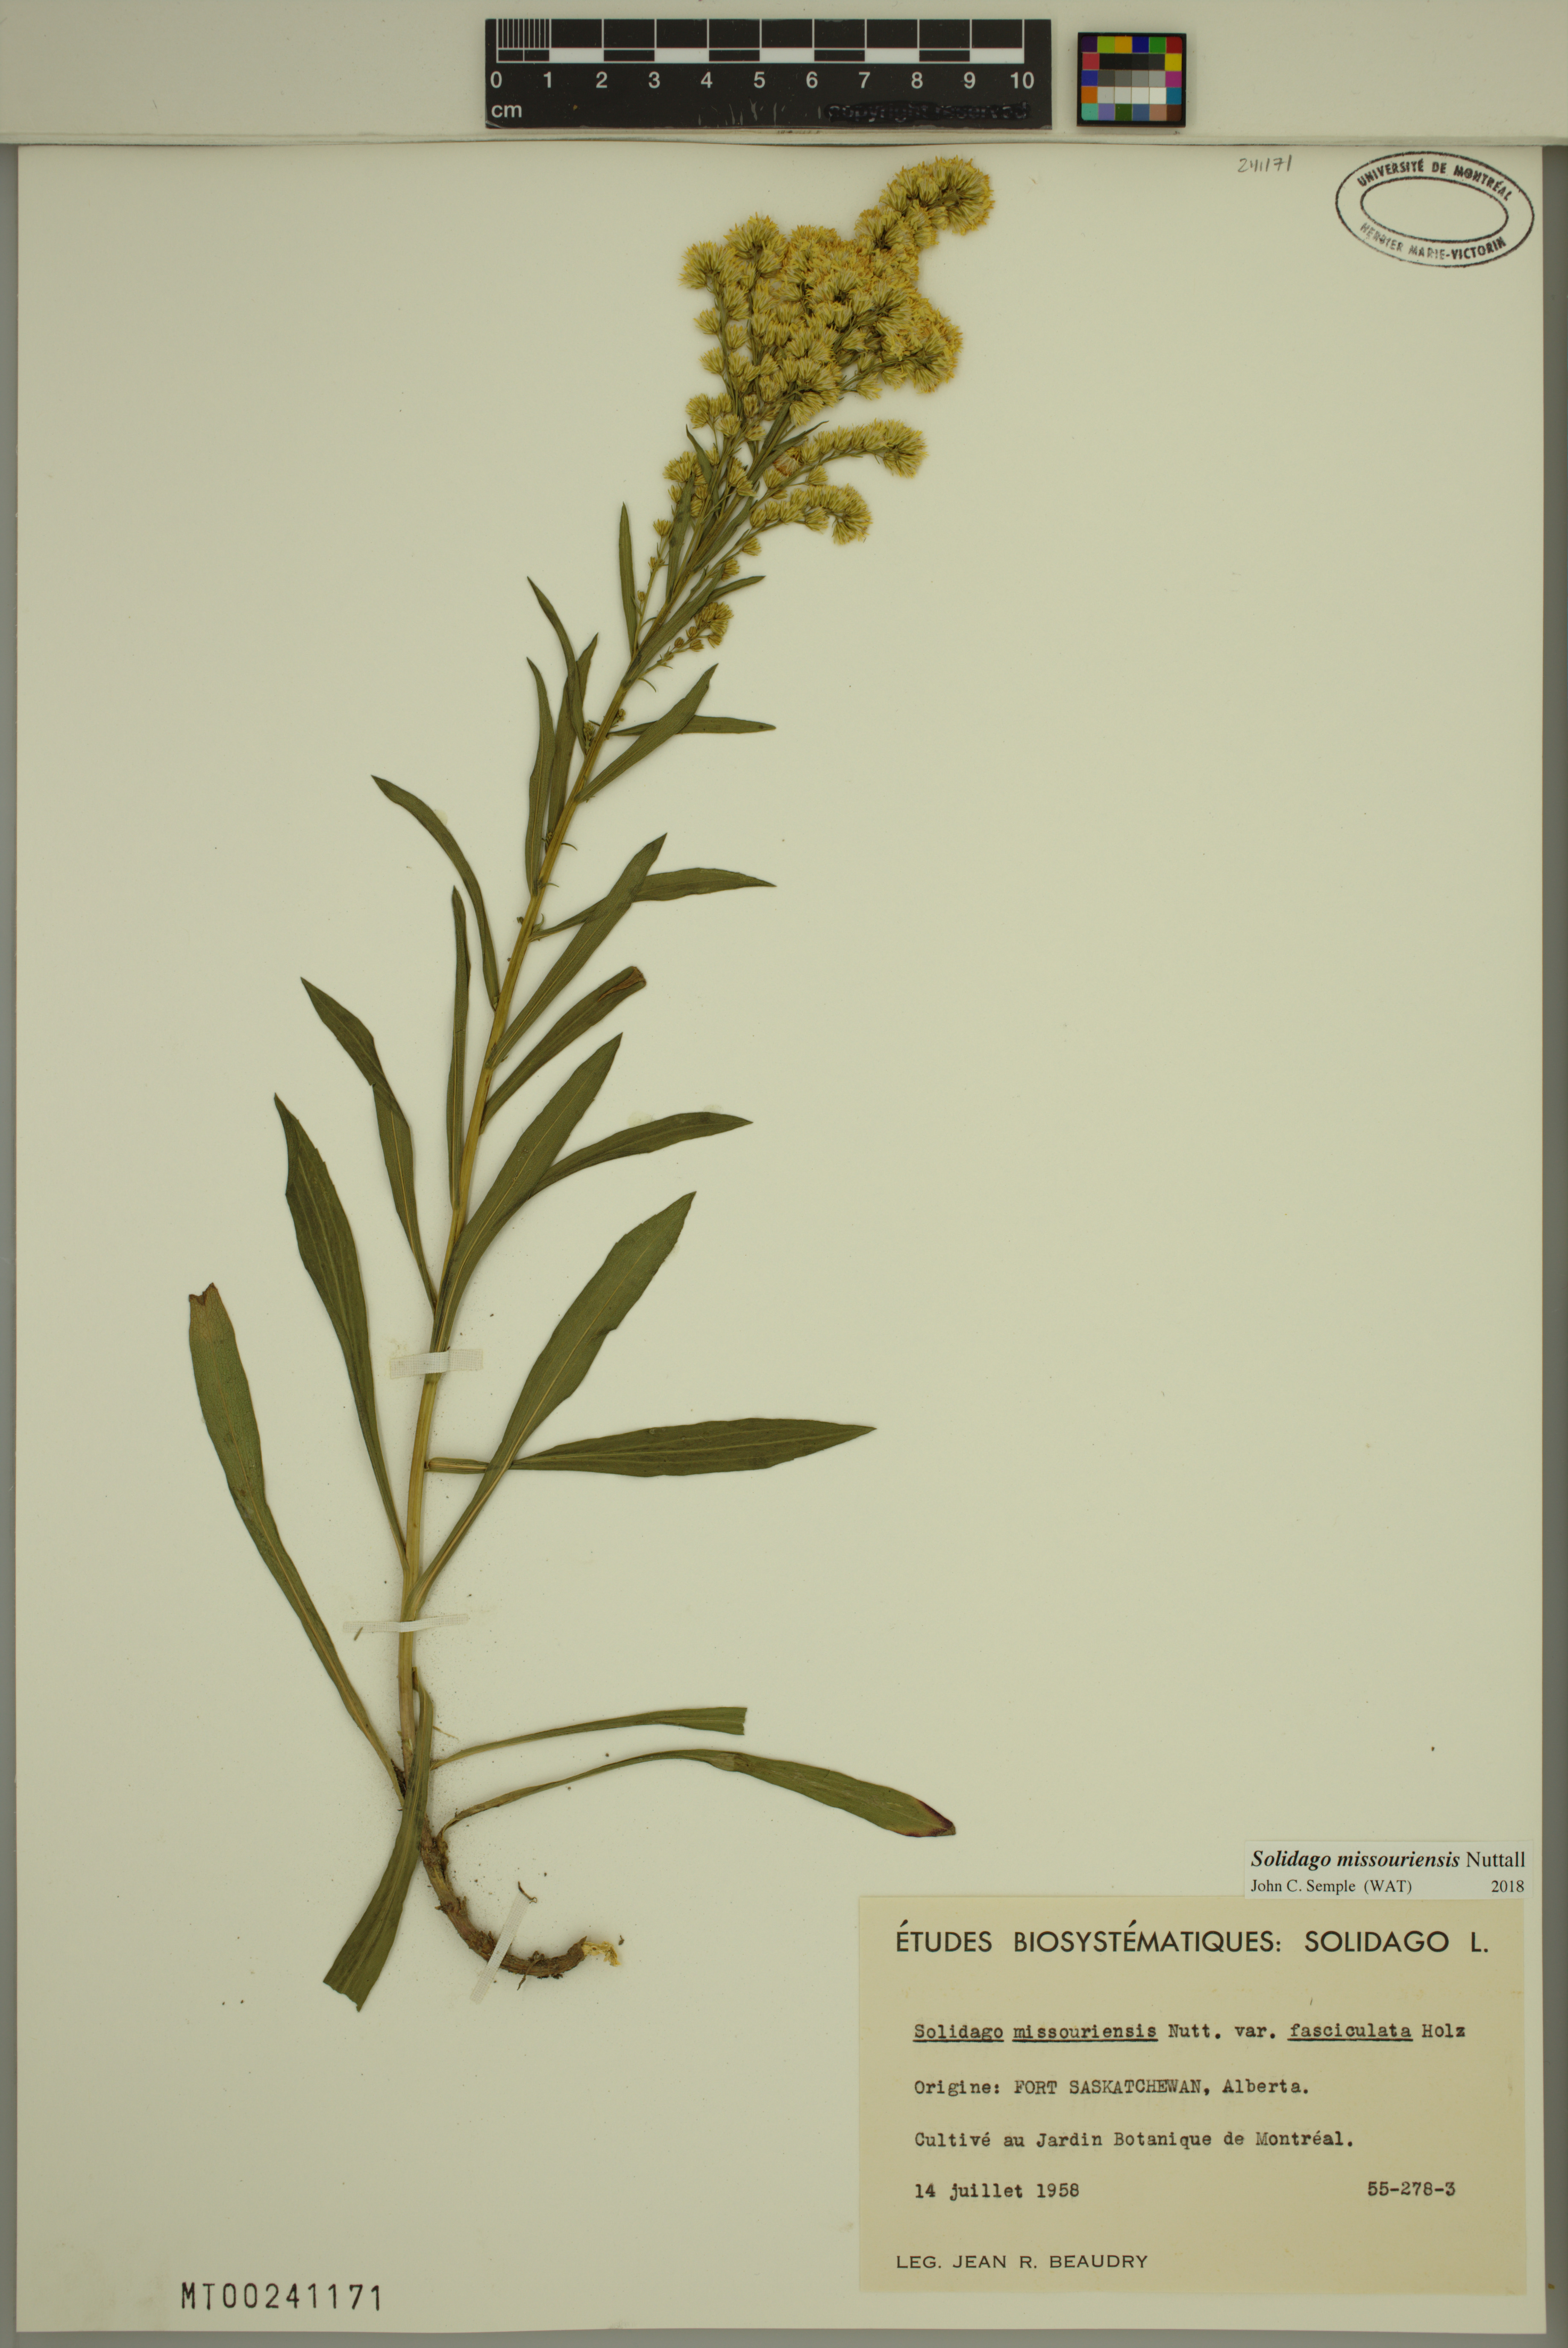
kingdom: Plantae
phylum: Tracheophyta
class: Magnoliopsida
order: Asterales
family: Asteraceae
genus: Solidago
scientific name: Solidago missouriensis
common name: Prairie goldenrod
